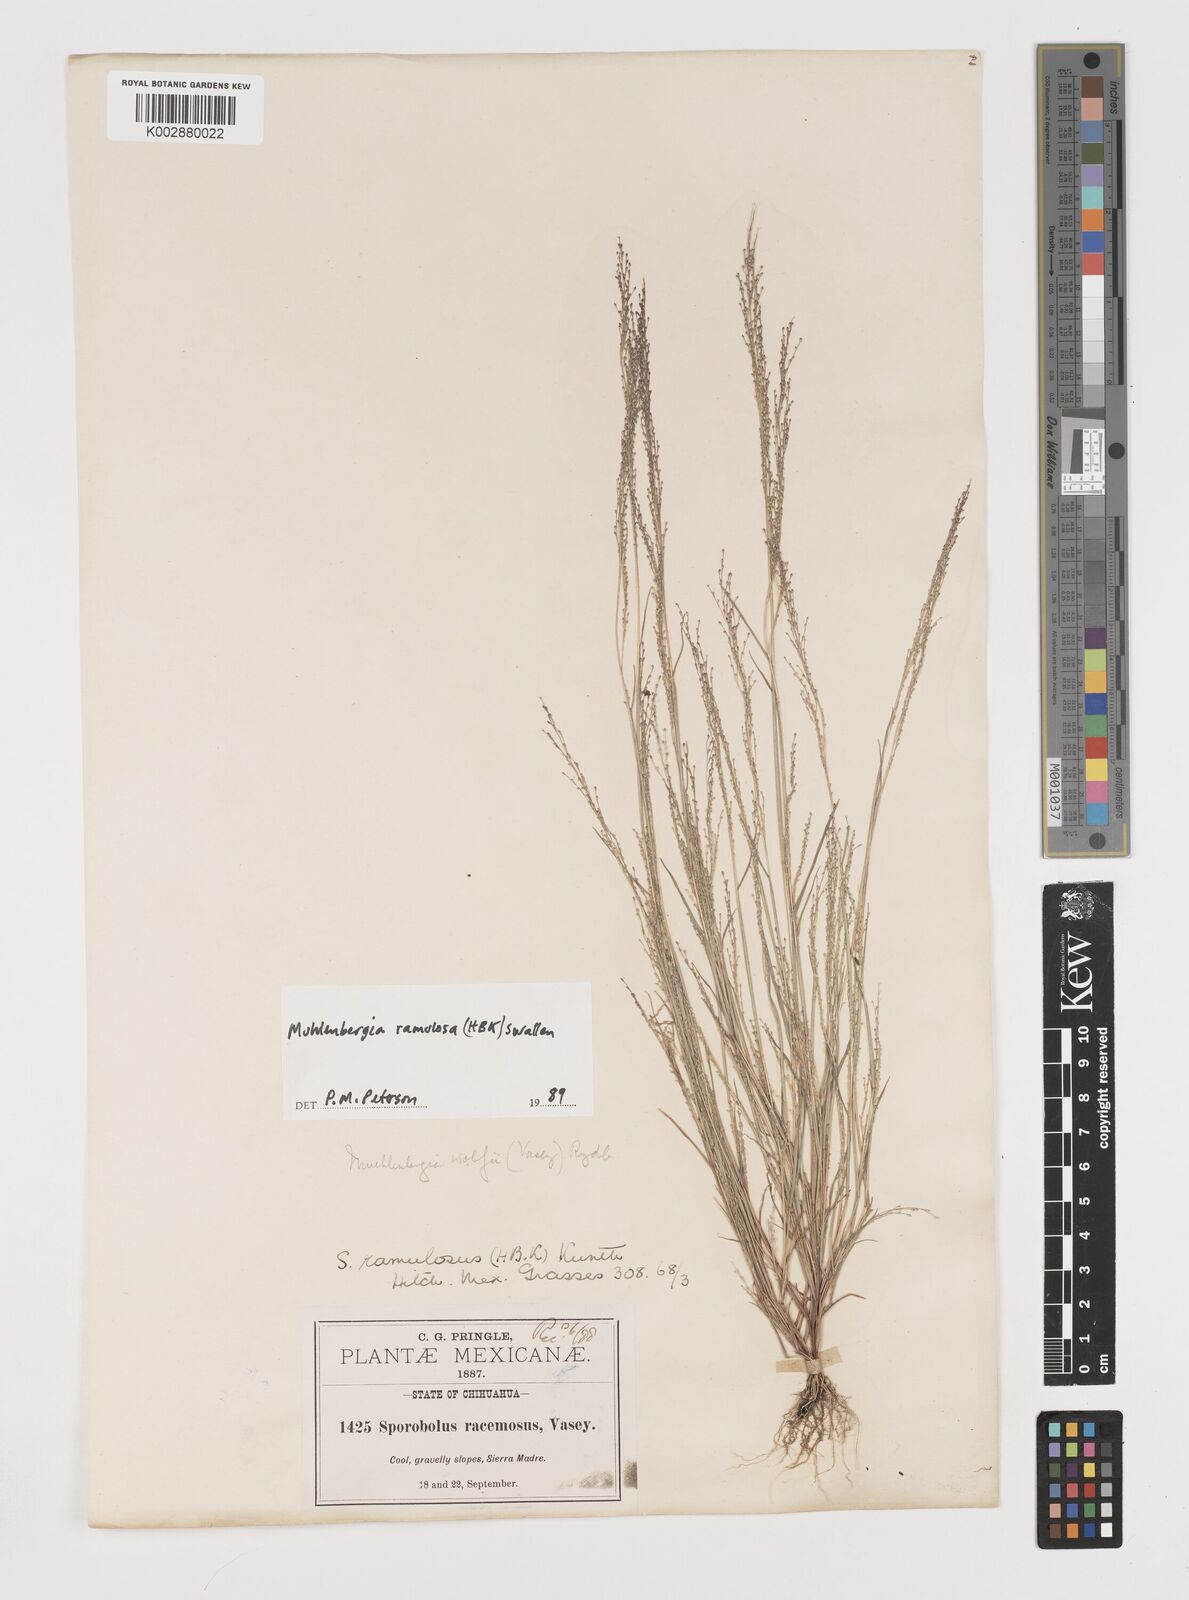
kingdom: Plantae
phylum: Tracheophyta
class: Liliopsida
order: Poales
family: Poaceae
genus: Muhlenbergia
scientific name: Muhlenbergia ramulosa
